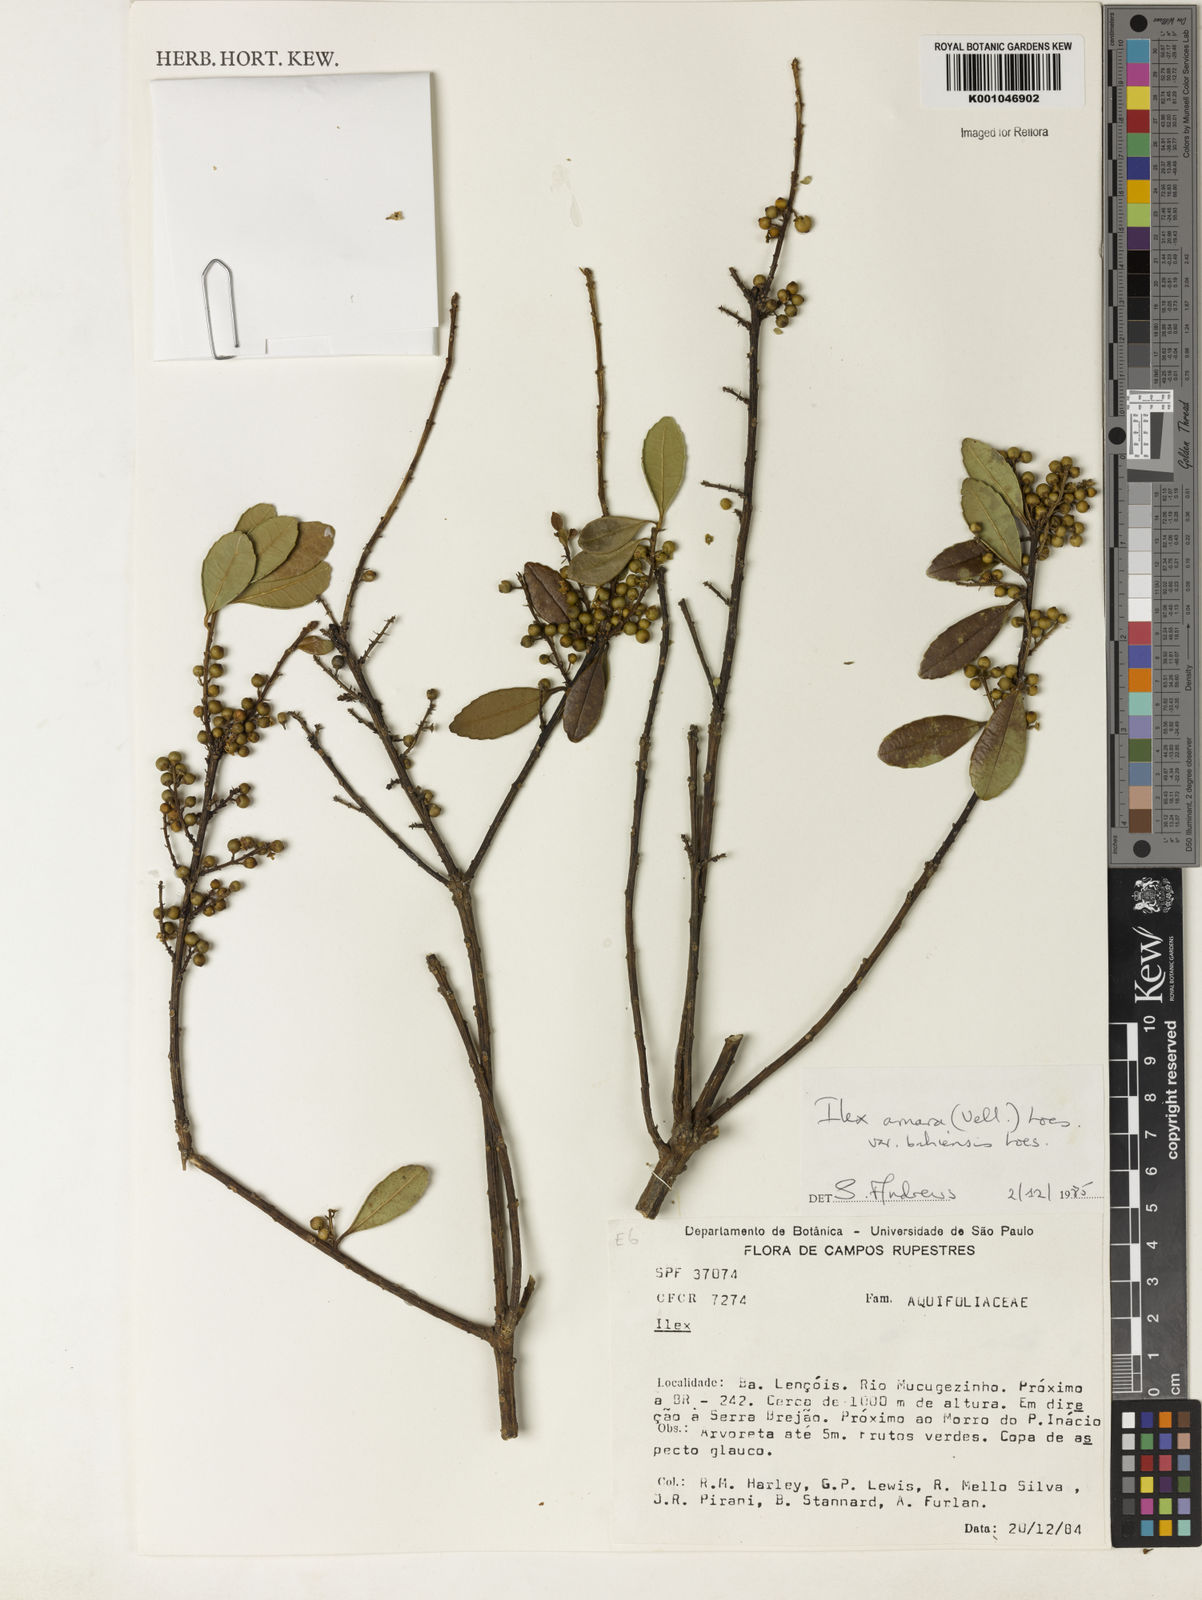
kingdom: Plantae
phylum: Tracheophyta
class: Magnoliopsida
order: Aquifoliales
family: Aquifoliaceae
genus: Ilex
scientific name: Ilex dumosa
